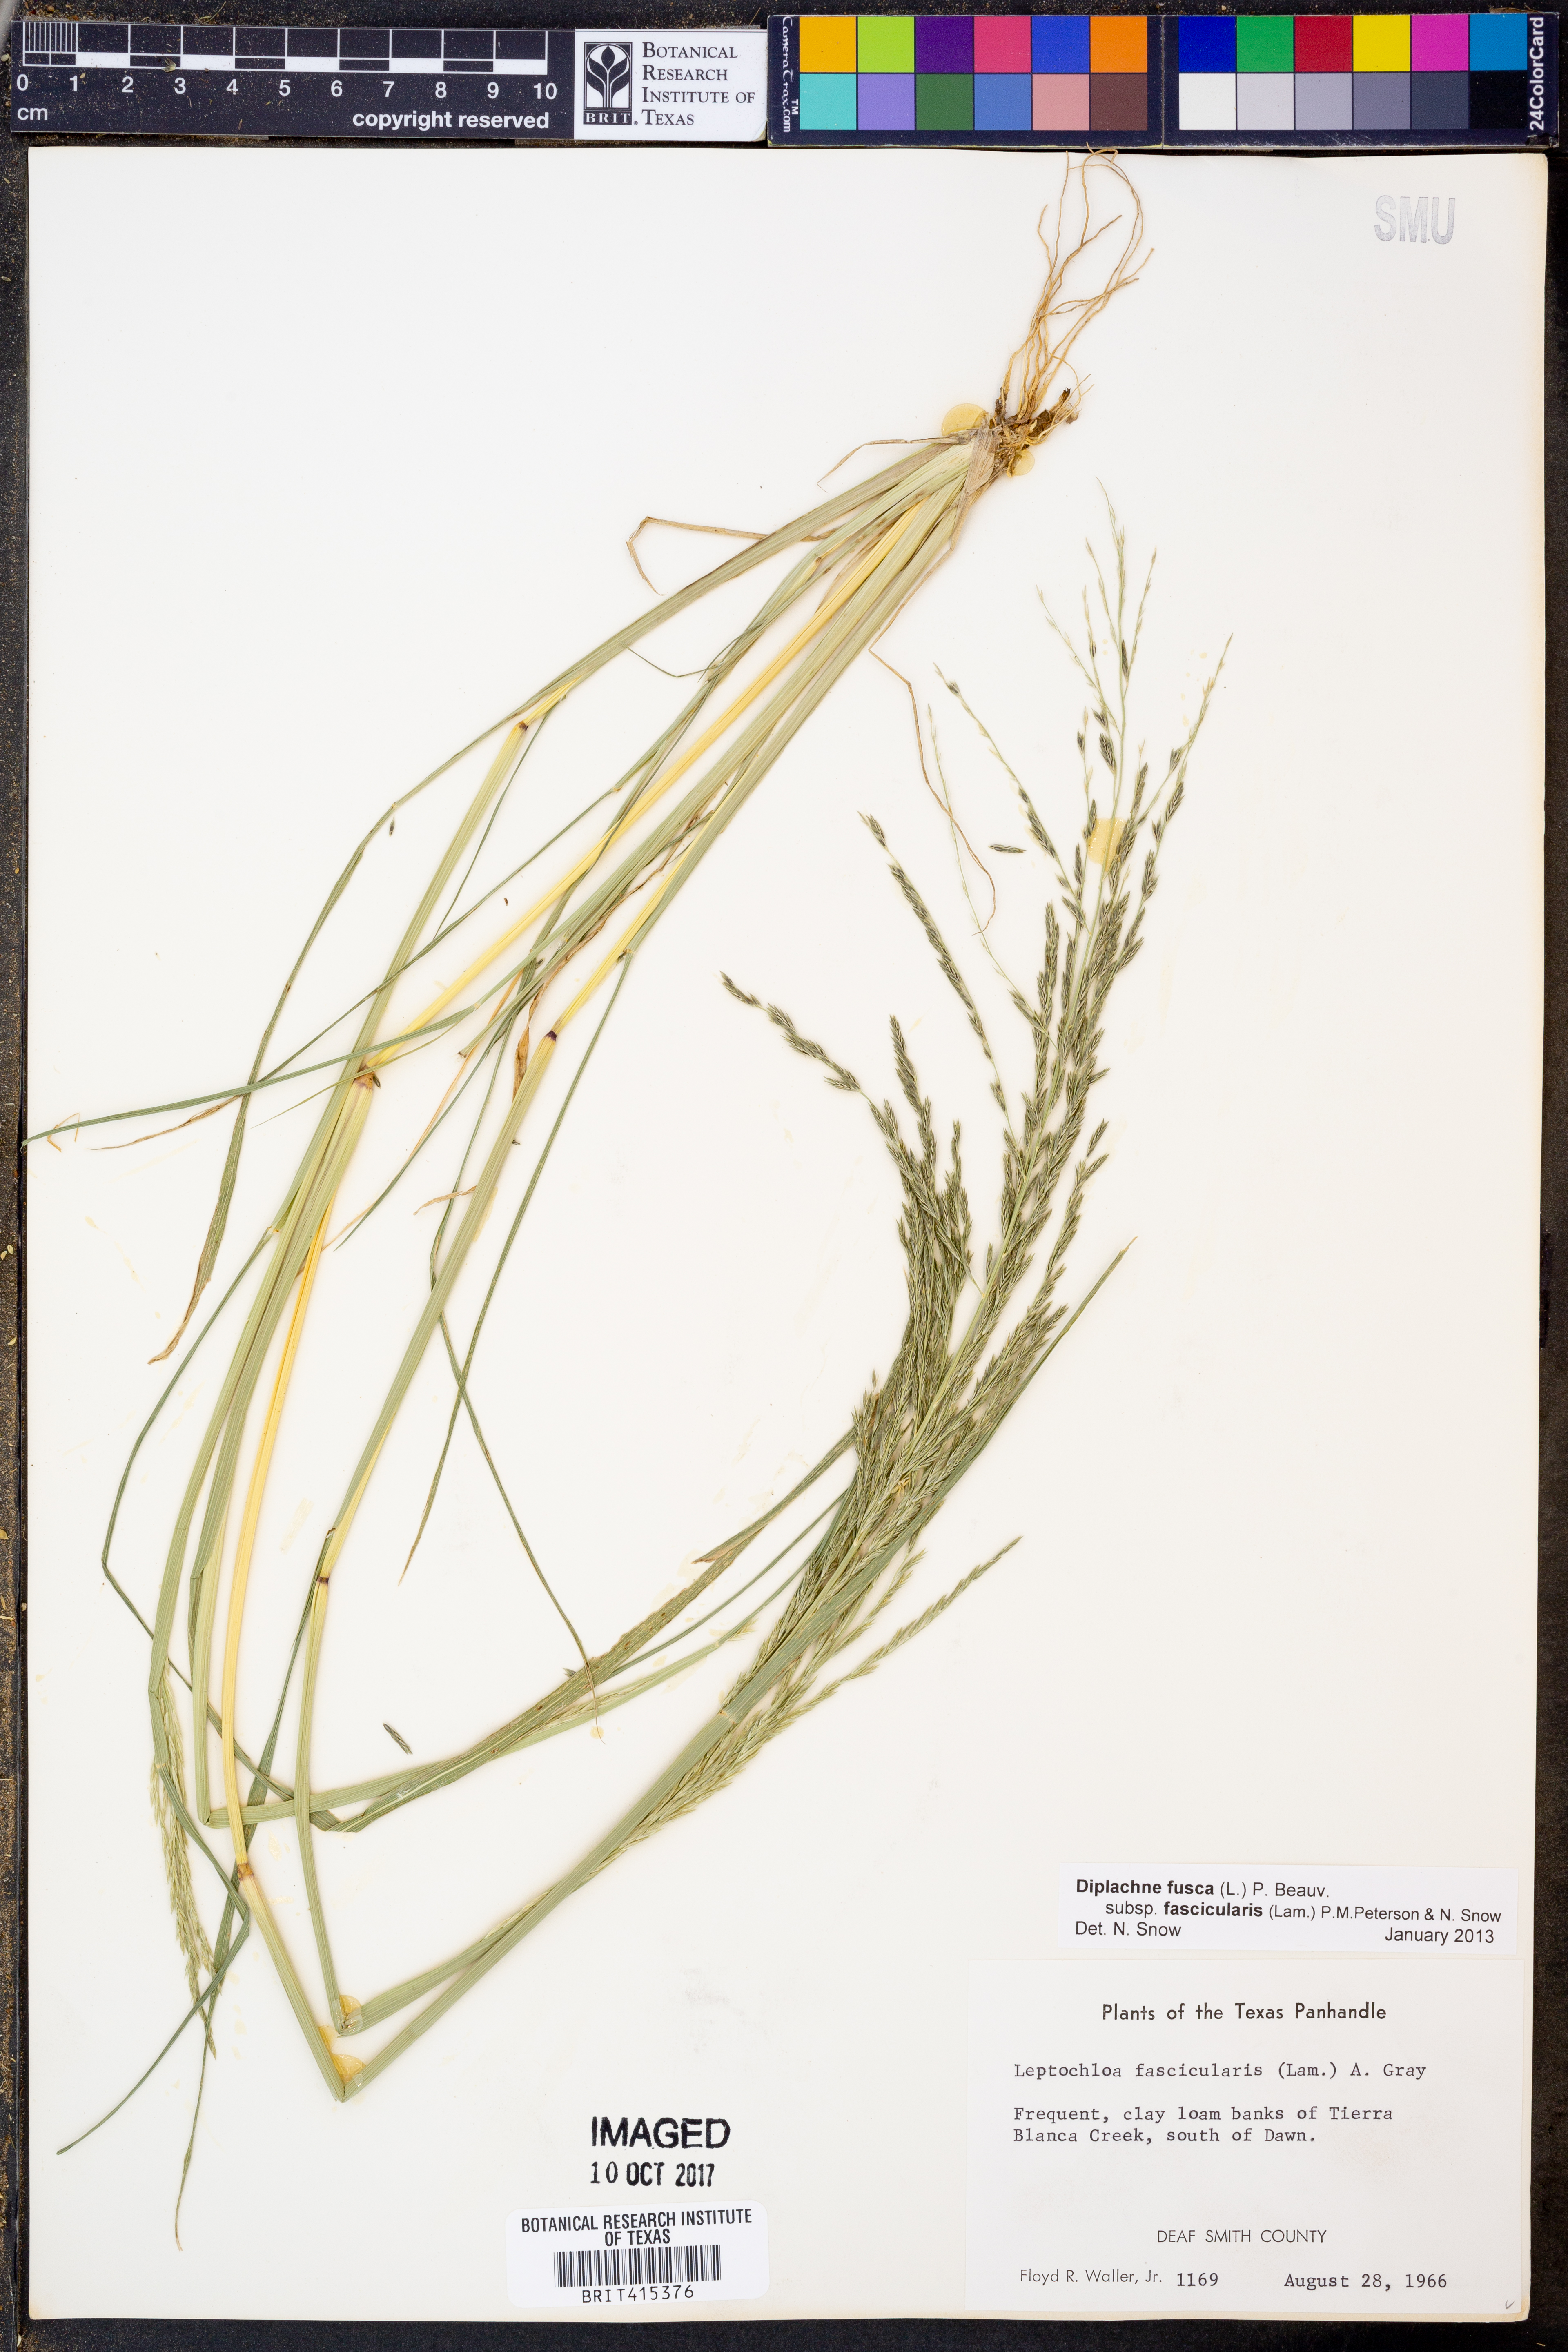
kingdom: Plantae
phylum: Tracheophyta
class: Liliopsida
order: Poales
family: Poaceae
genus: Diplachne
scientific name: Diplachne fusca
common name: Brown beetle grass
